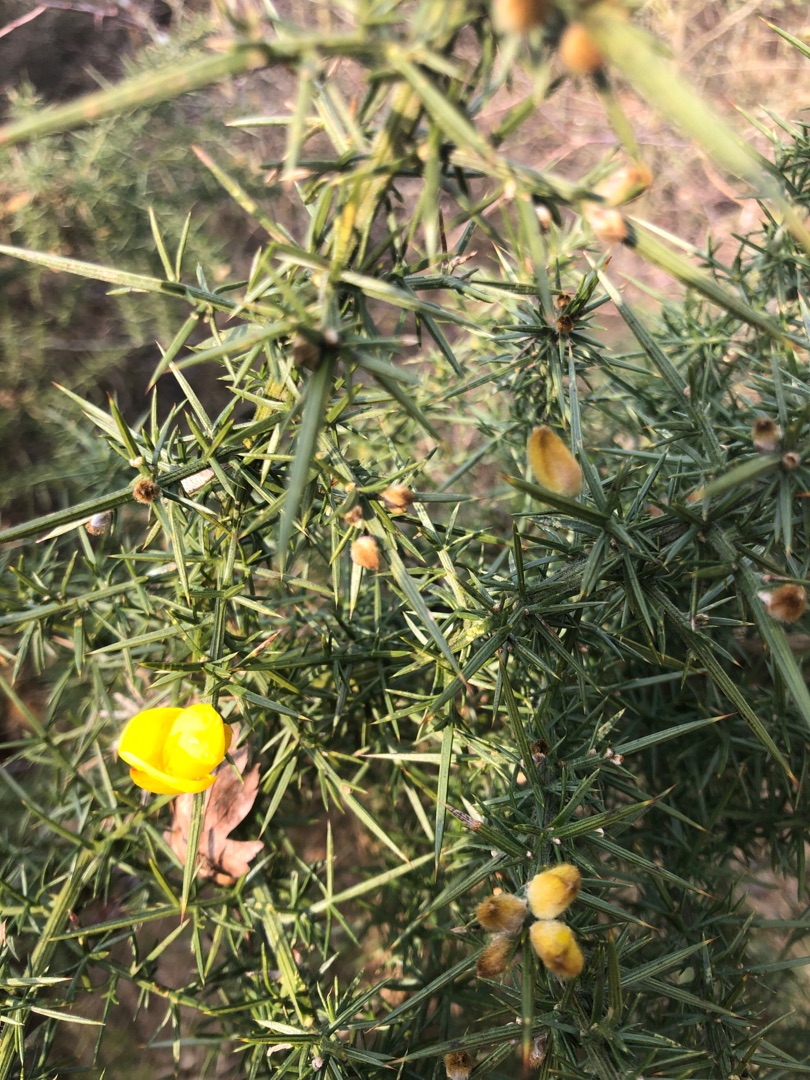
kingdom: Plantae
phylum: Tracheophyta
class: Magnoliopsida
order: Fabales
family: Fabaceae
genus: Ulex
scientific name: Ulex europaeus
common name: Tornblad
